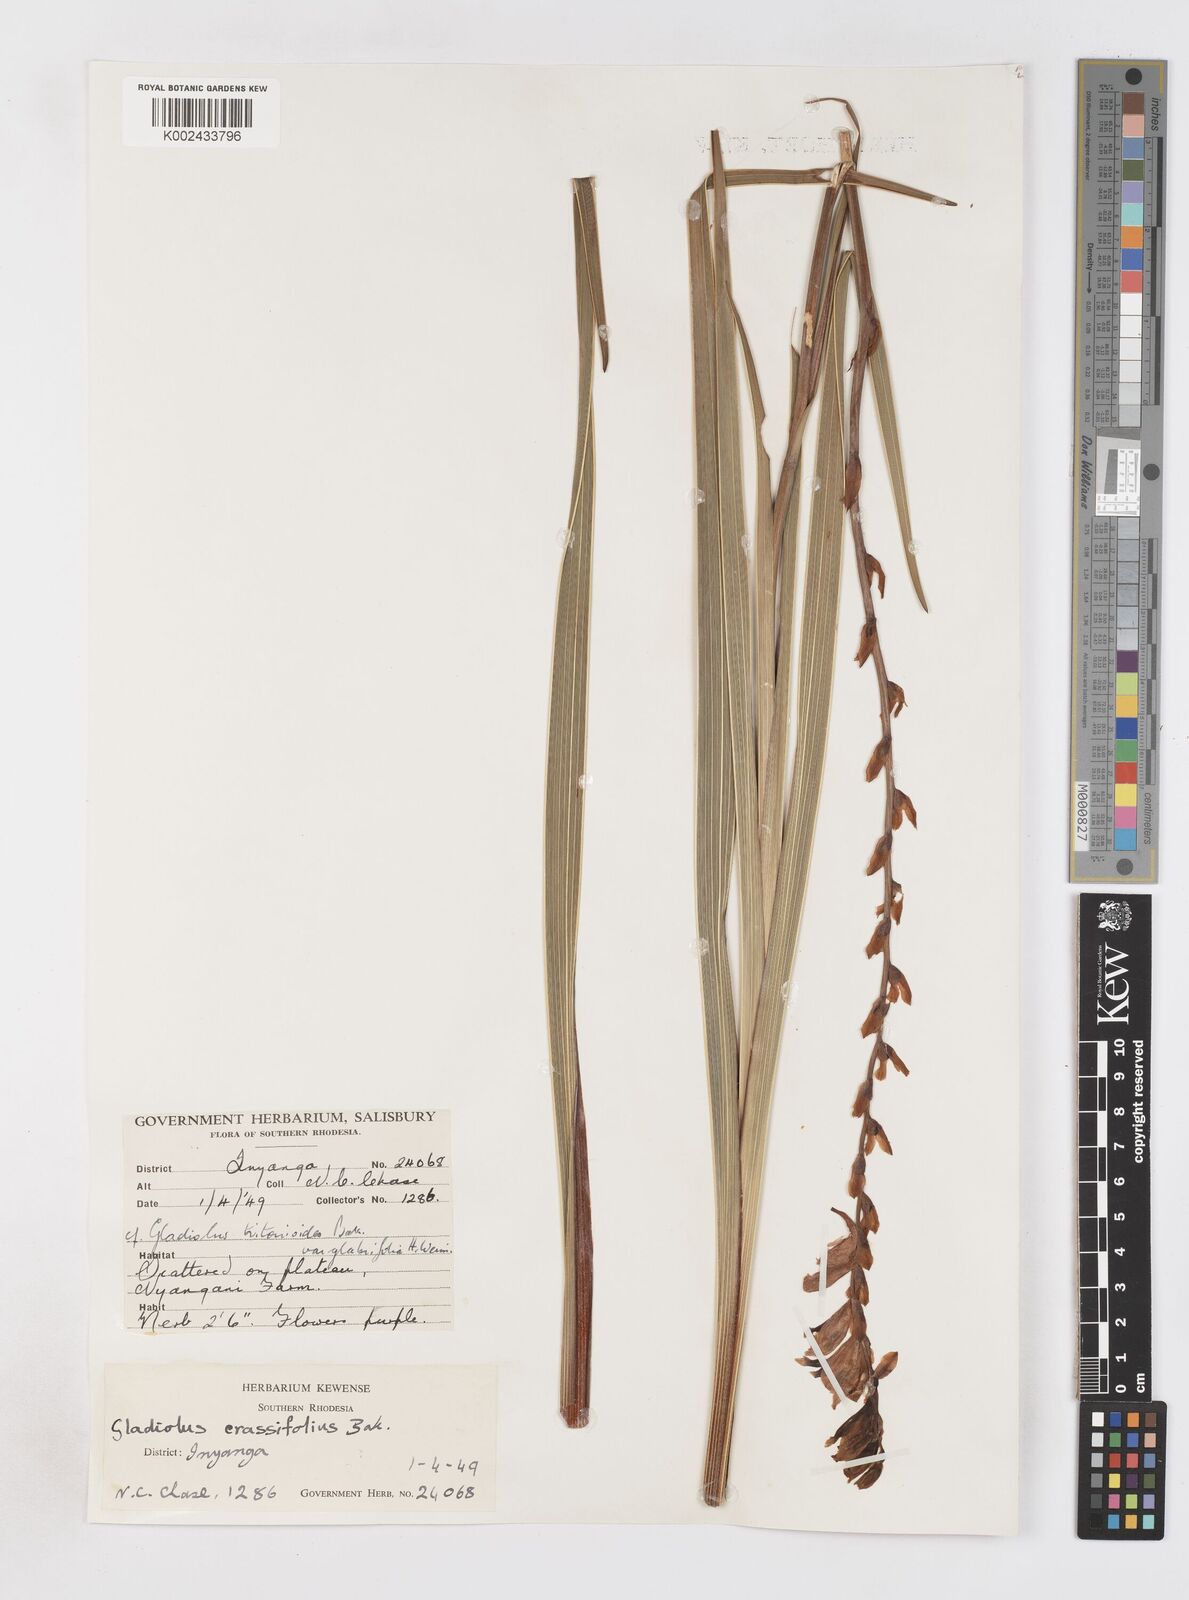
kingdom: Plantae
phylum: Tracheophyta
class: Liliopsida
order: Asparagales
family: Iridaceae
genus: Gladiolus
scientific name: Gladiolus crassifolius
